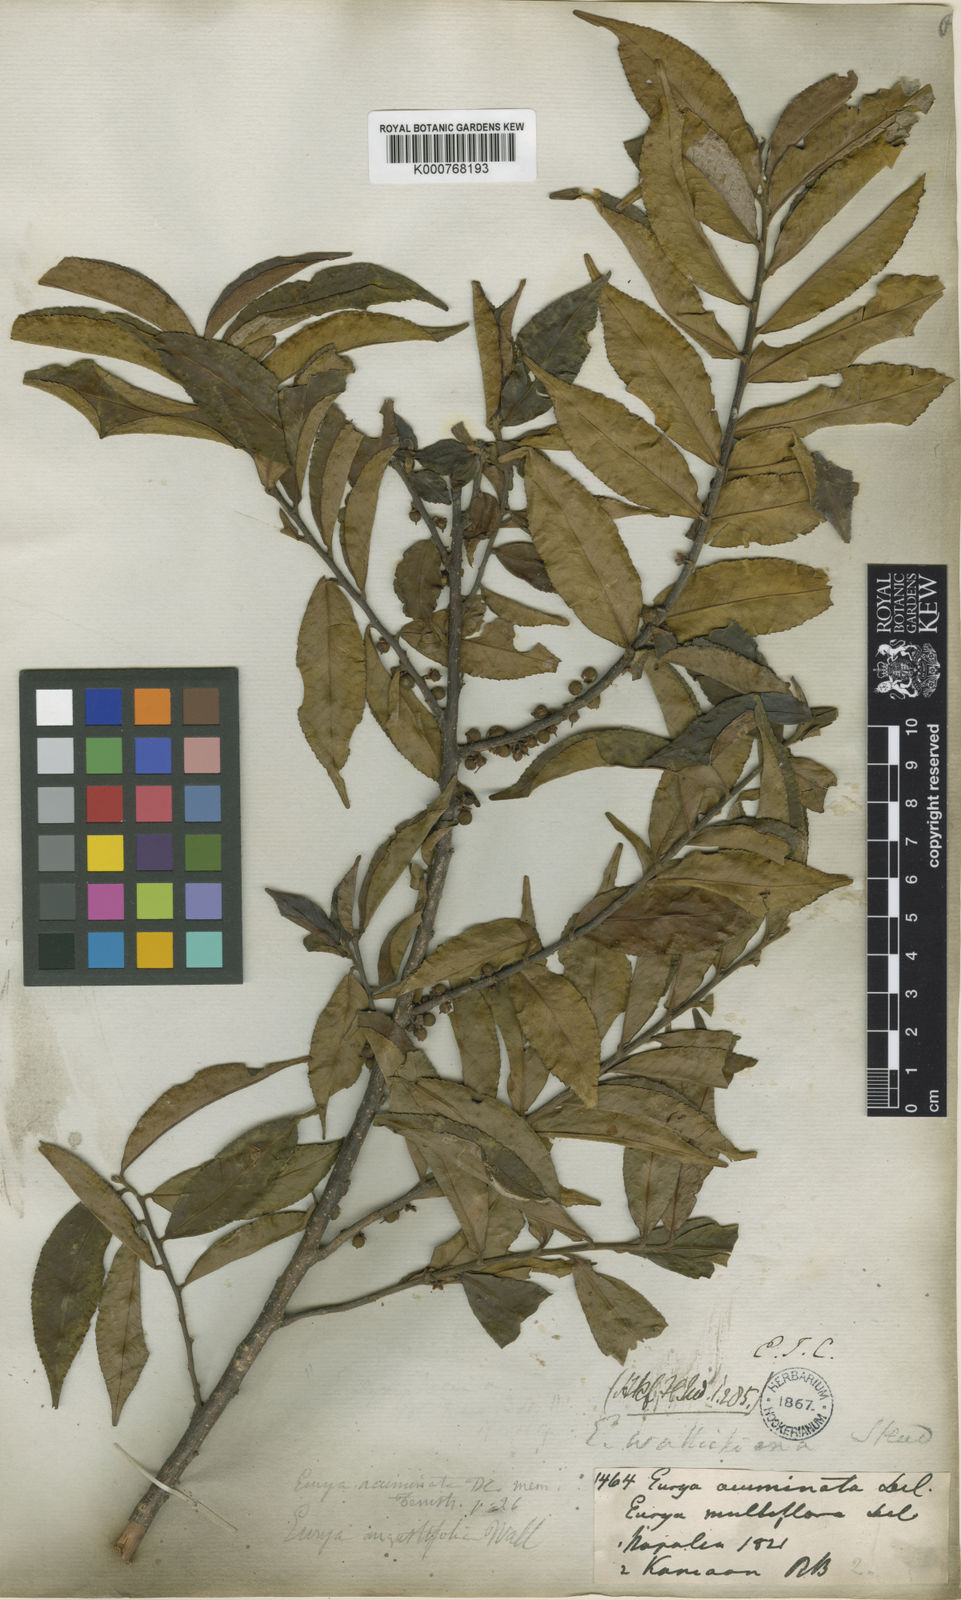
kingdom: Plantae
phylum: Tracheophyta
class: Magnoliopsida
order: Ericales
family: Pentaphylacaceae
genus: Eurya
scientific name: Eurya acuminata
